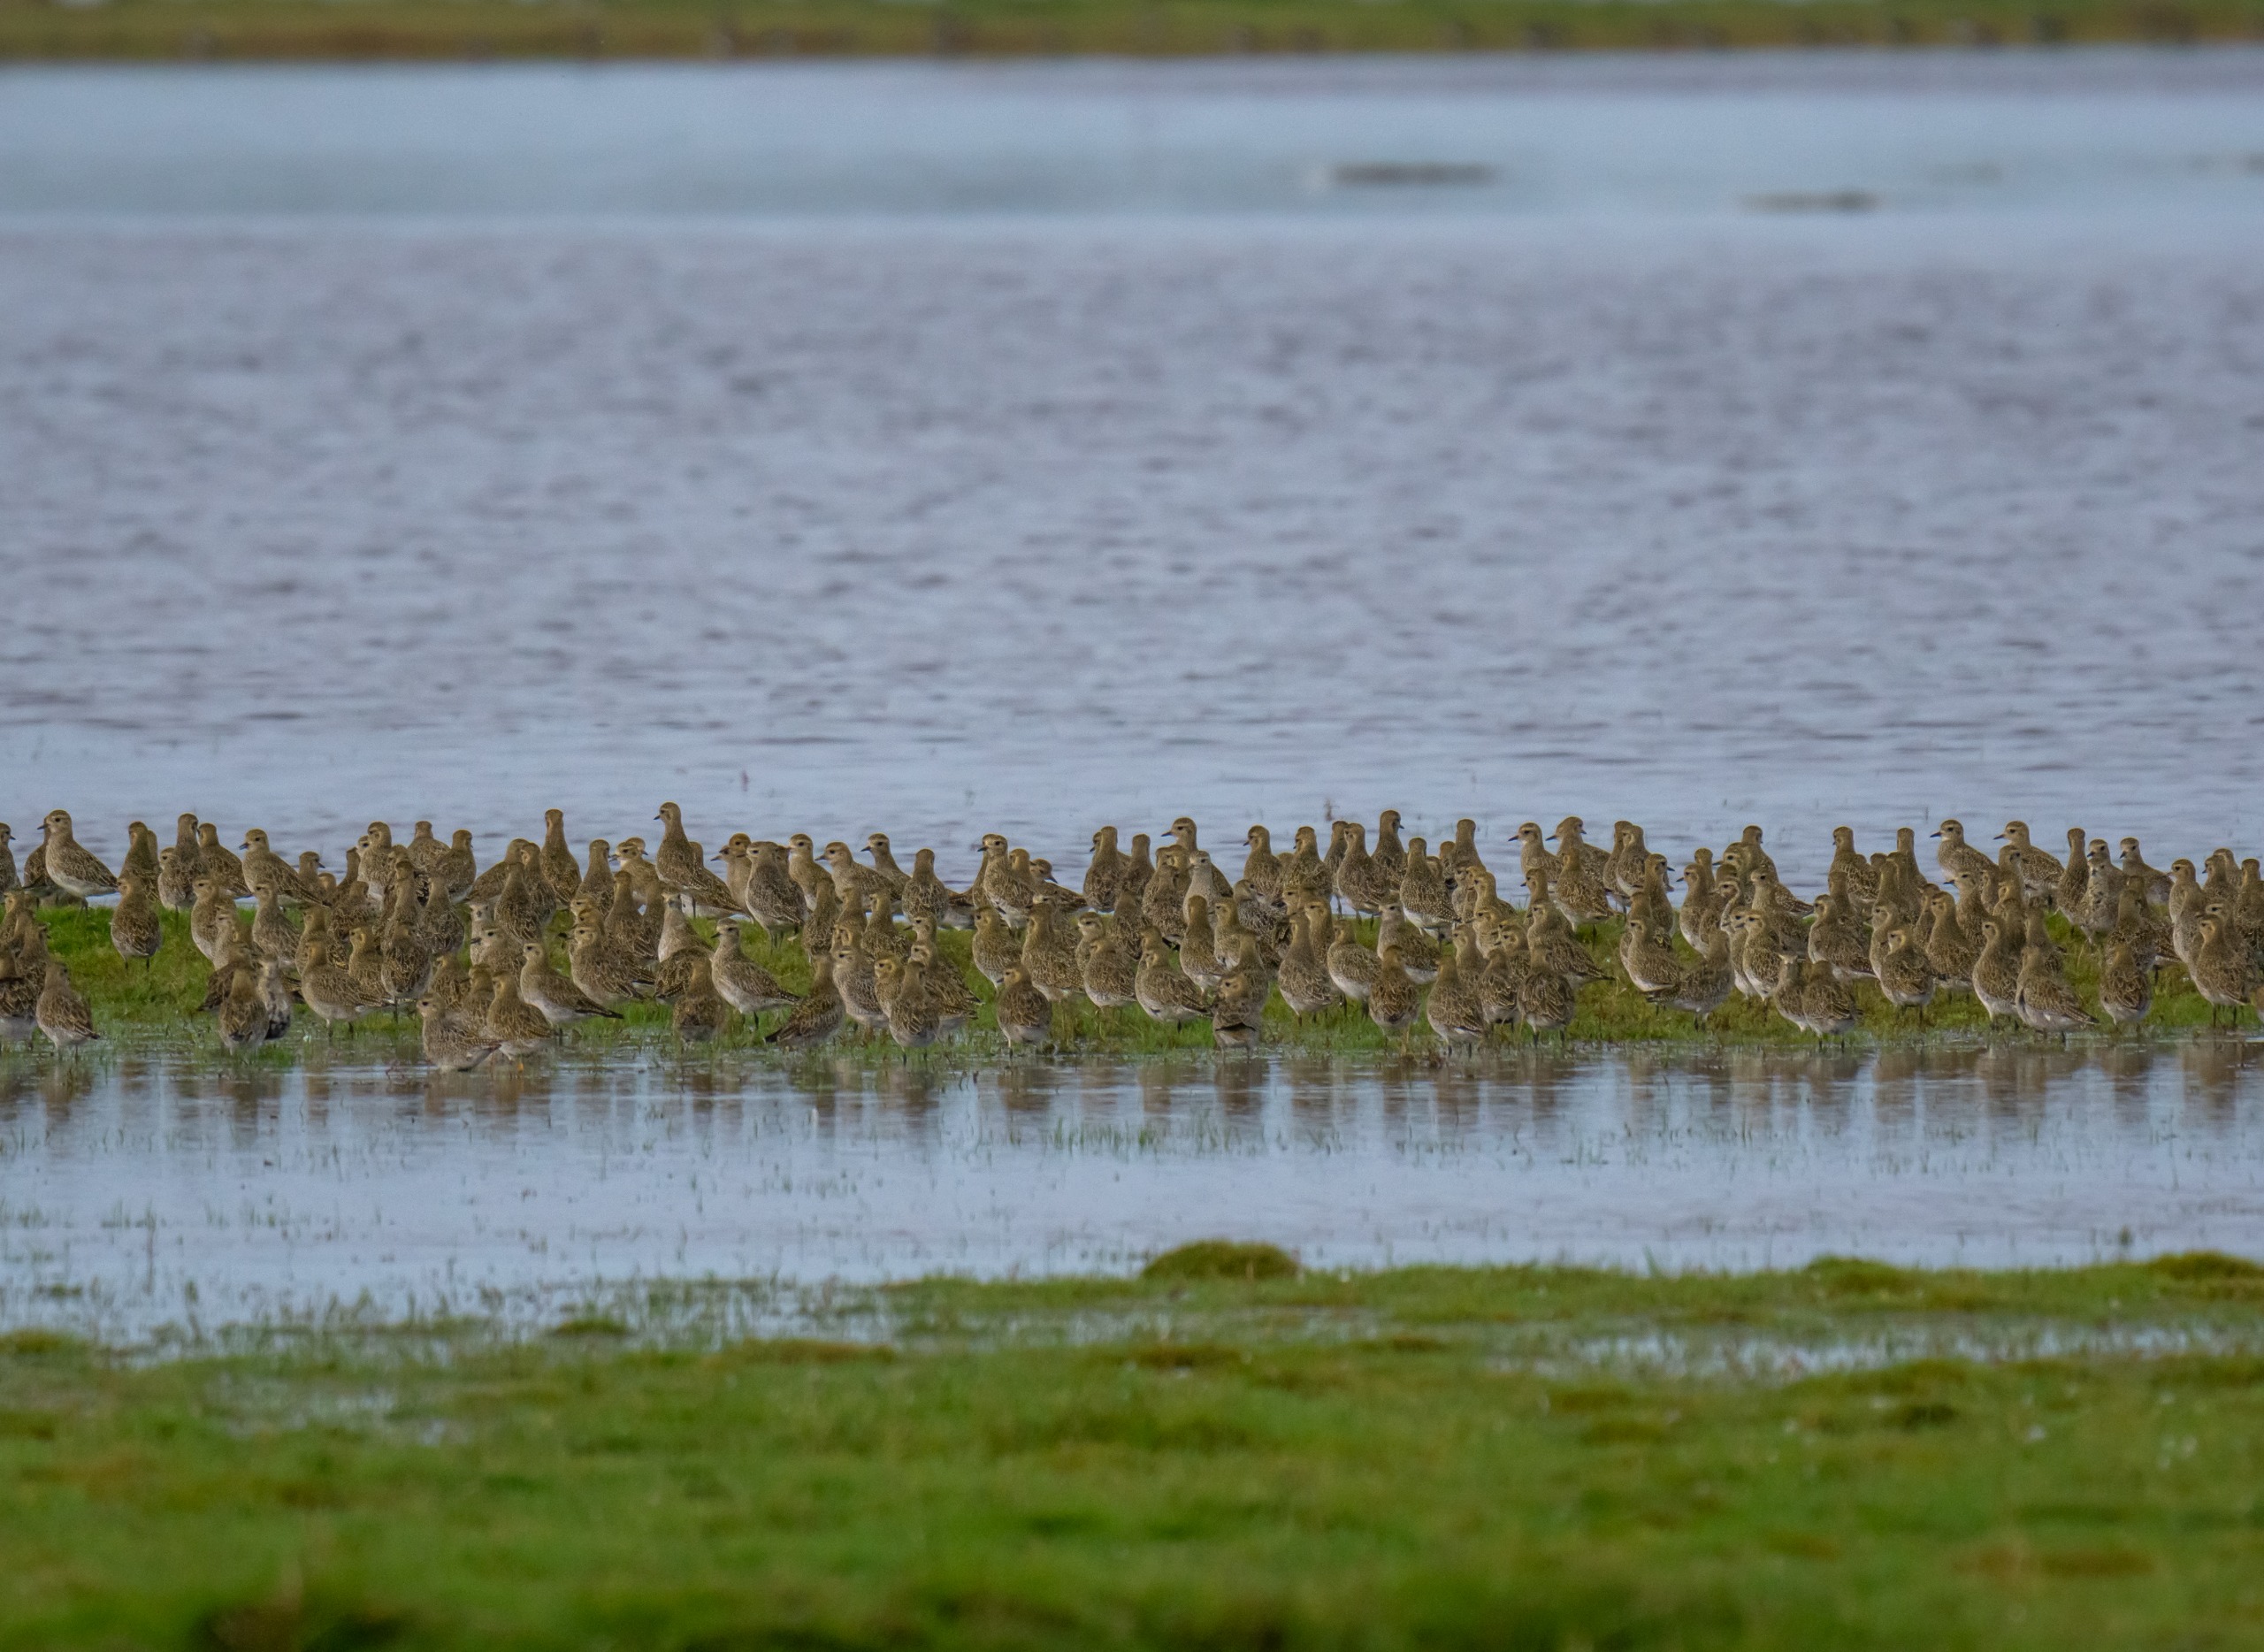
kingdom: Animalia
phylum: Chordata
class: Aves
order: Charadriiformes
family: Charadriidae
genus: Pluvialis
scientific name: Pluvialis apricaria
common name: Hjejle
